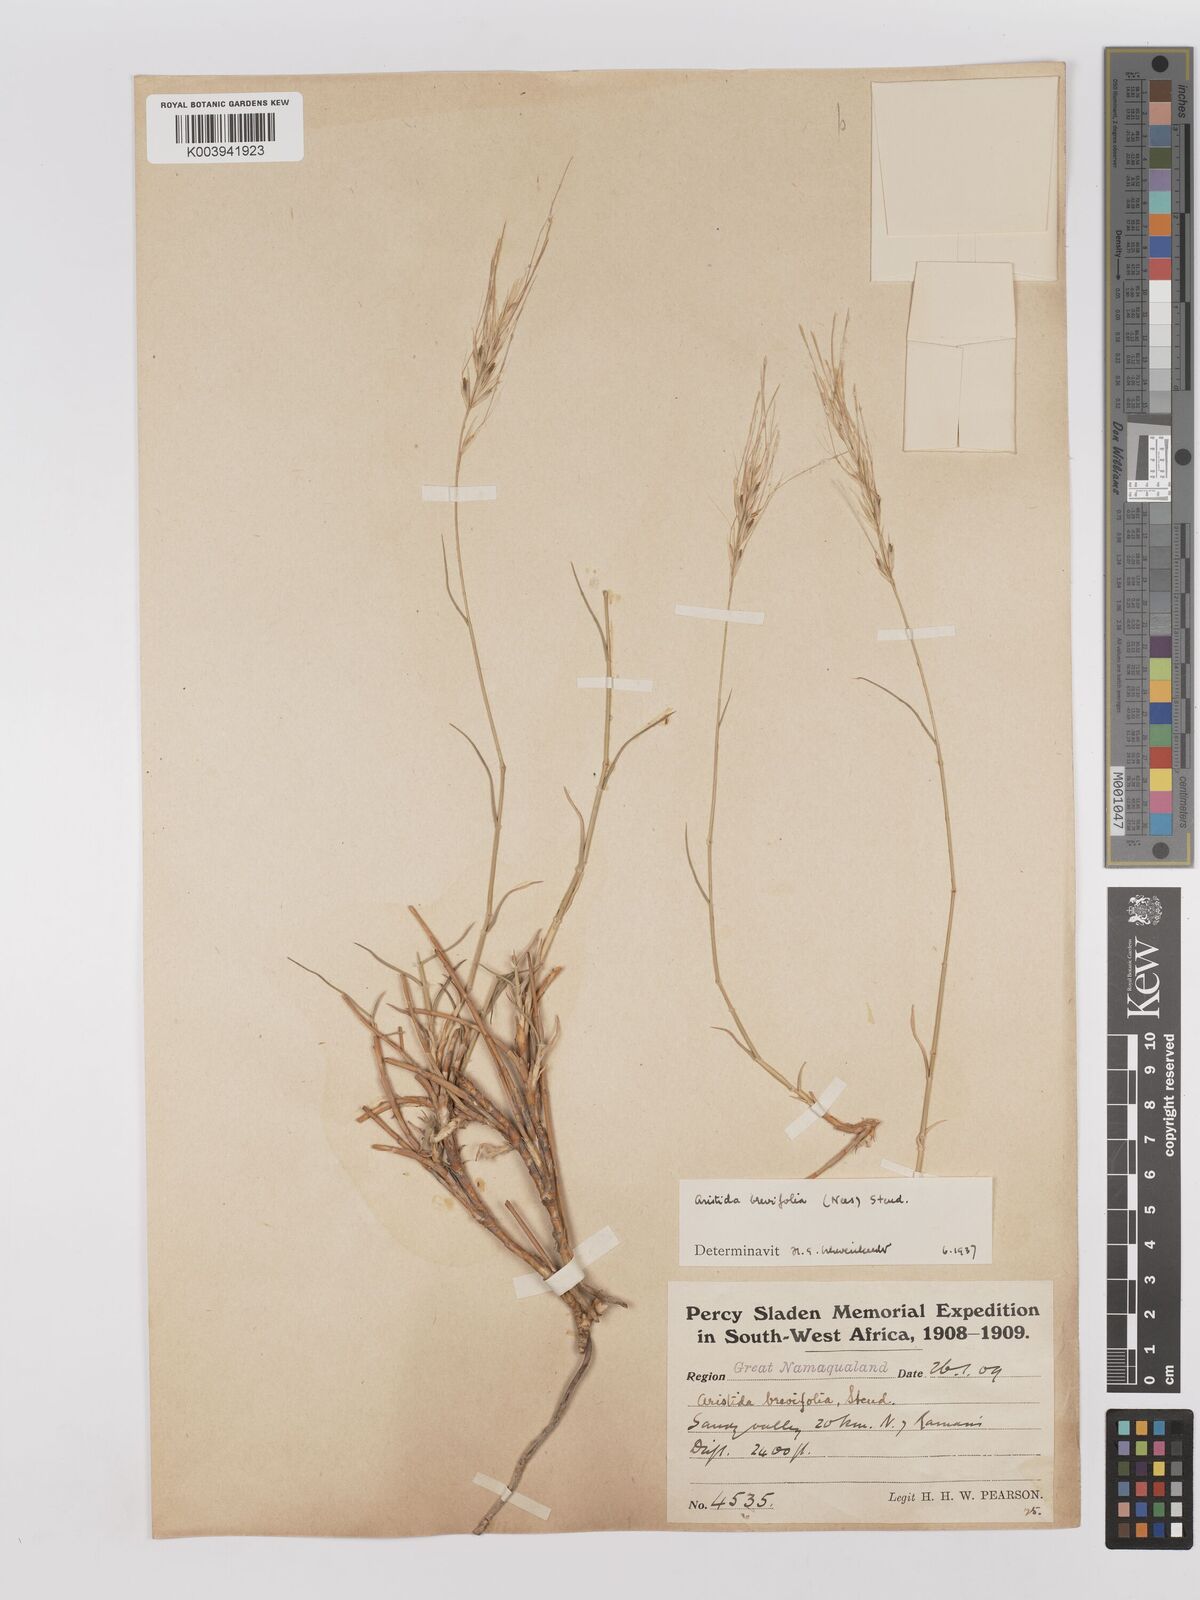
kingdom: Plantae
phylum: Tracheophyta
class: Liliopsida
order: Poales
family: Poaceae
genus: Stipagrostis
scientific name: Stipagrostis brevifolia
